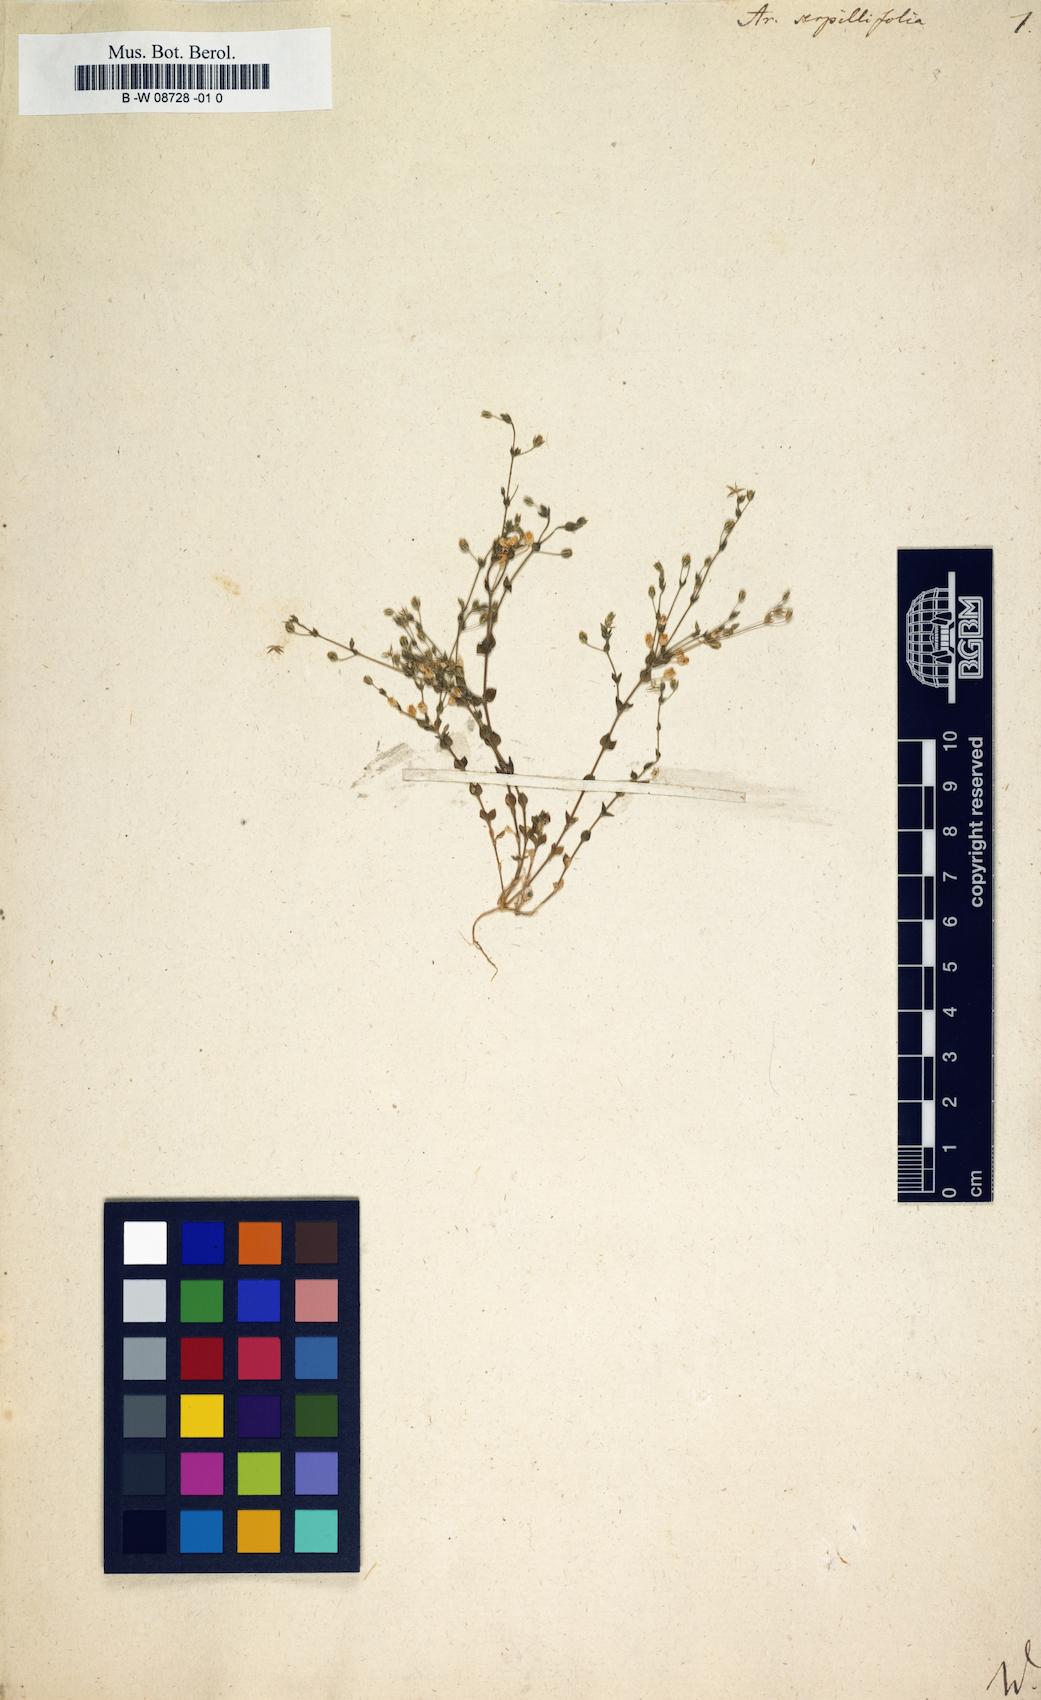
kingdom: Plantae
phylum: Tracheophyta
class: Magnoliopsida
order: Caryophyllales
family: Caryophyllaceae
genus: Arenaria
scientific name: Arenaria serpyllifolia
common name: Thyme-leaved sandwort
